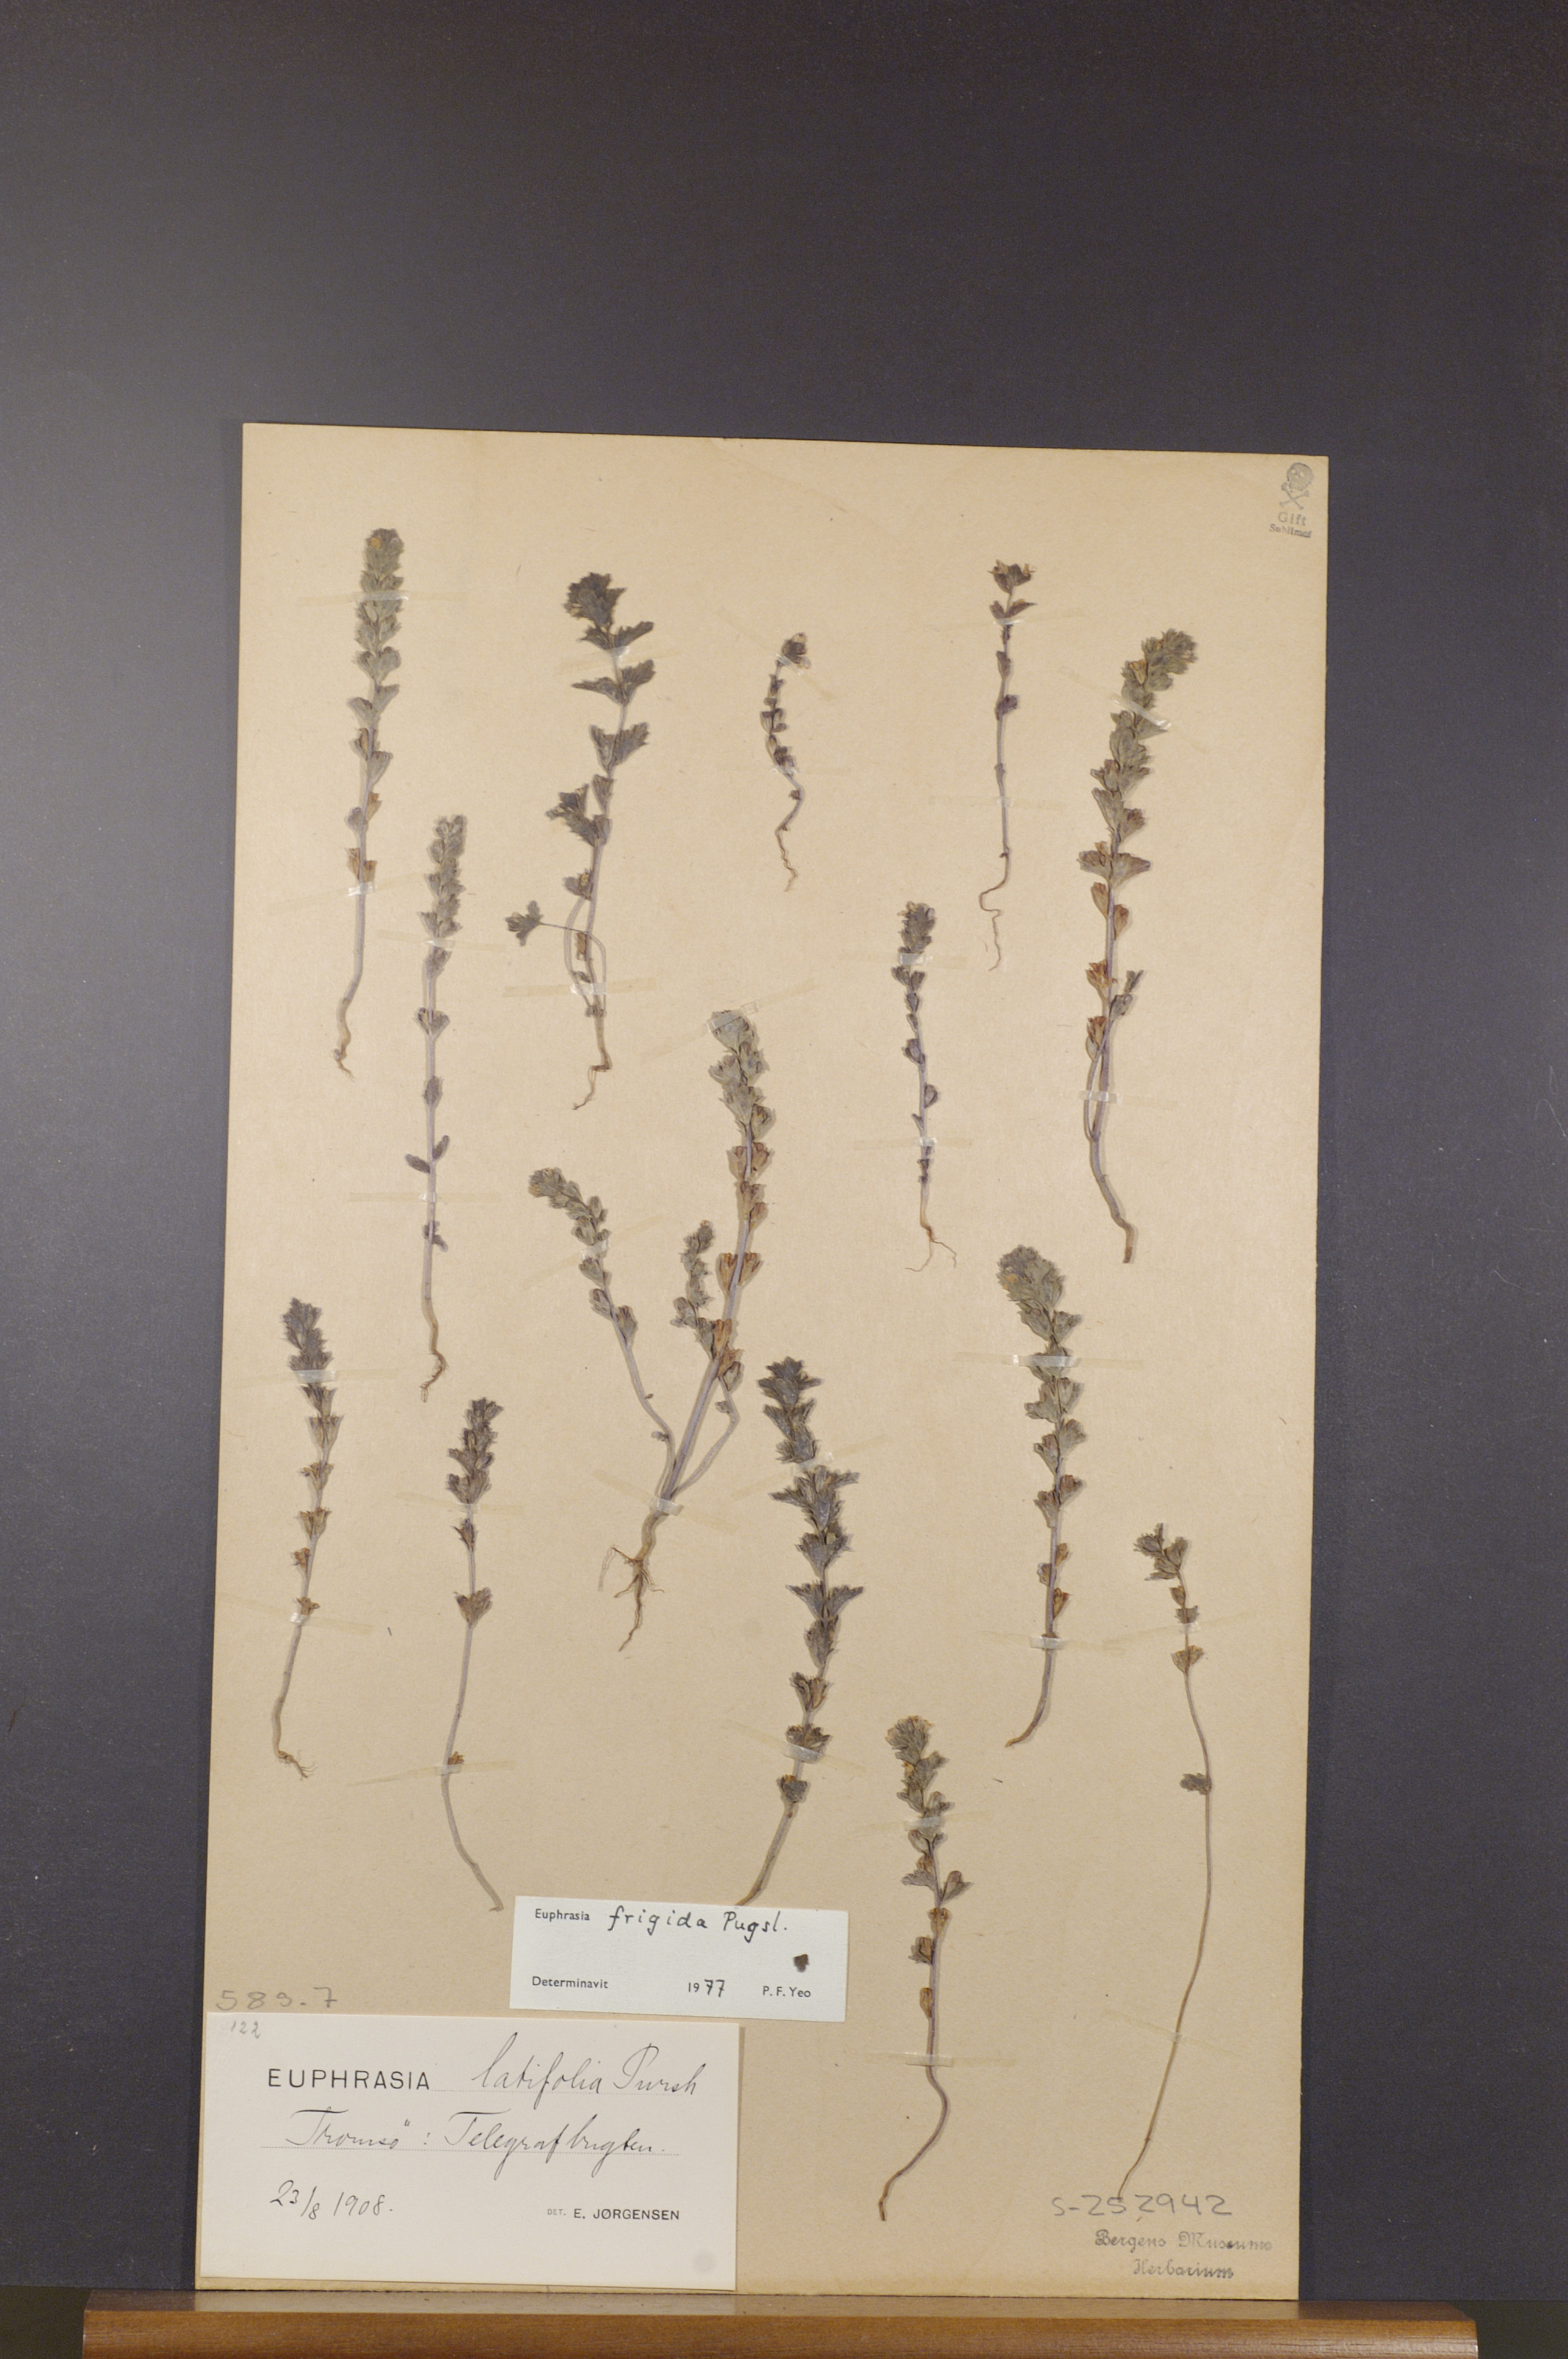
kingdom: Plantae
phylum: Tracheophyta
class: Magnoliopsida
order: Lamiales
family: Orobanchaceae
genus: Euphrasia
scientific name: Euphrasia frigida
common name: An eyebright
